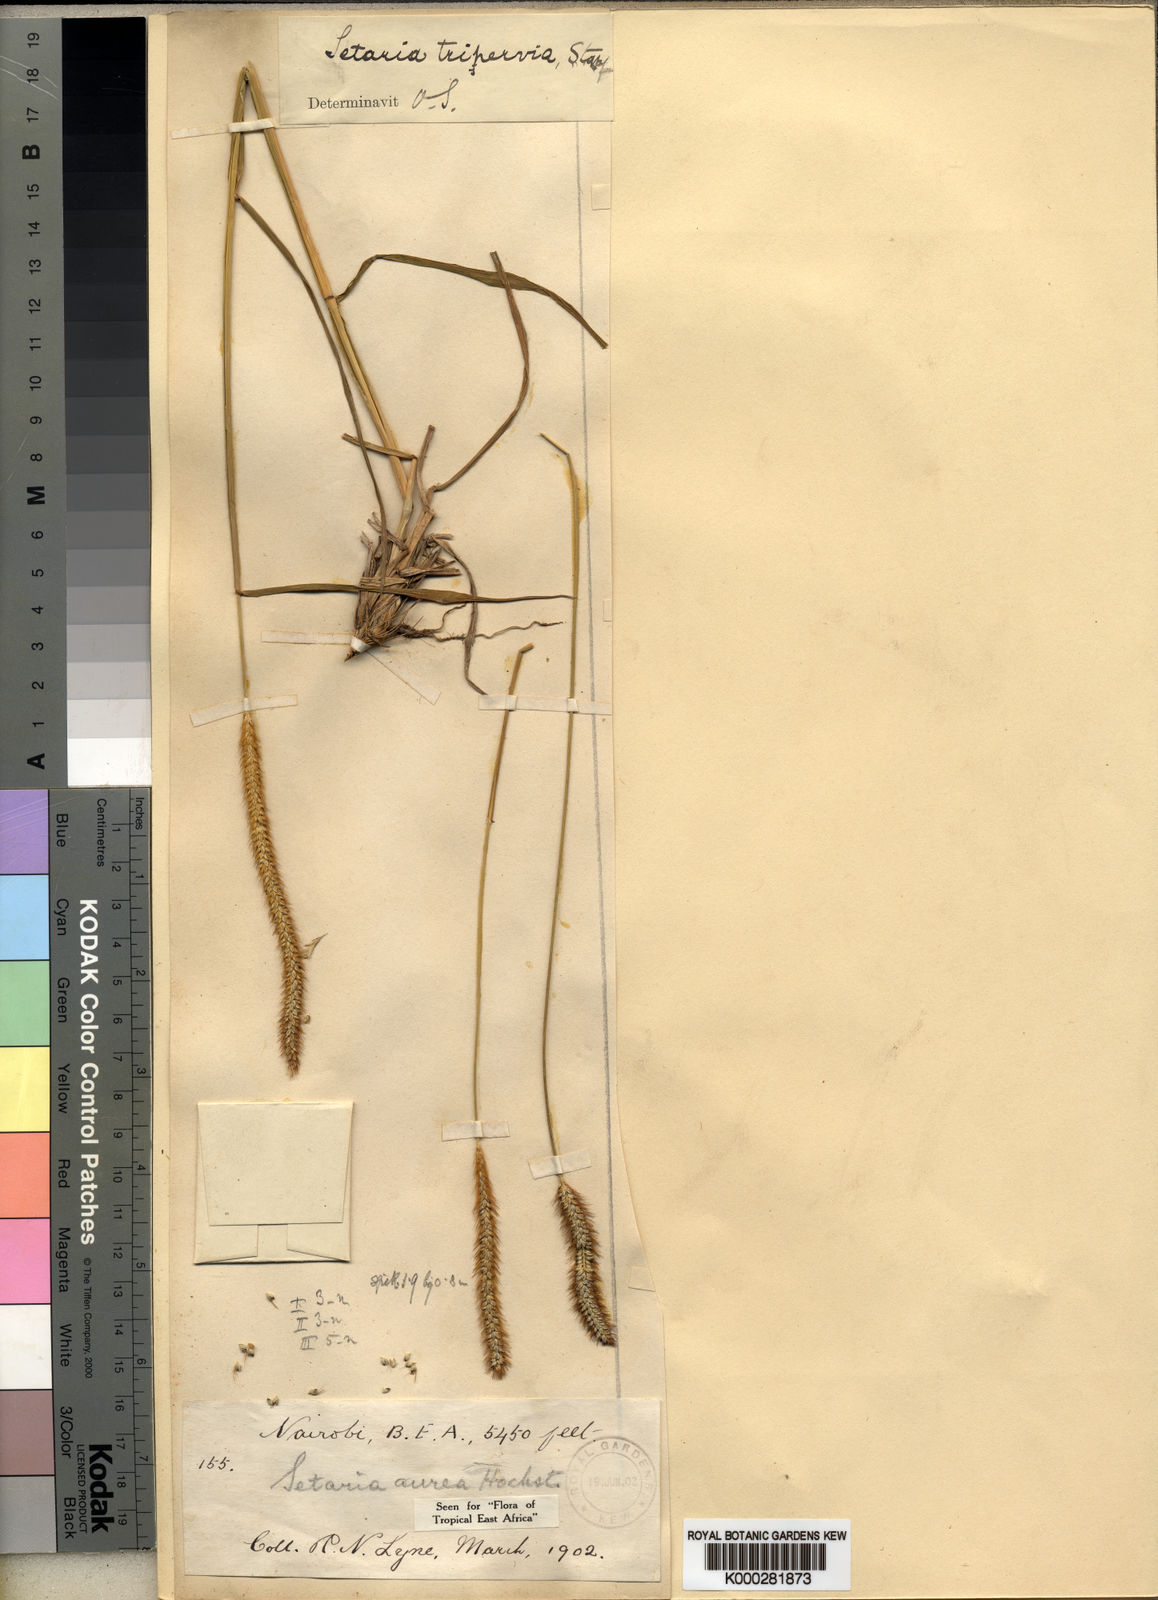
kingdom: Plantae
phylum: Tracheophyta
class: Liliopsida
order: Poales
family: Poaceae
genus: Setaria
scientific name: Setaria sphacelata
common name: African bristlegrass
